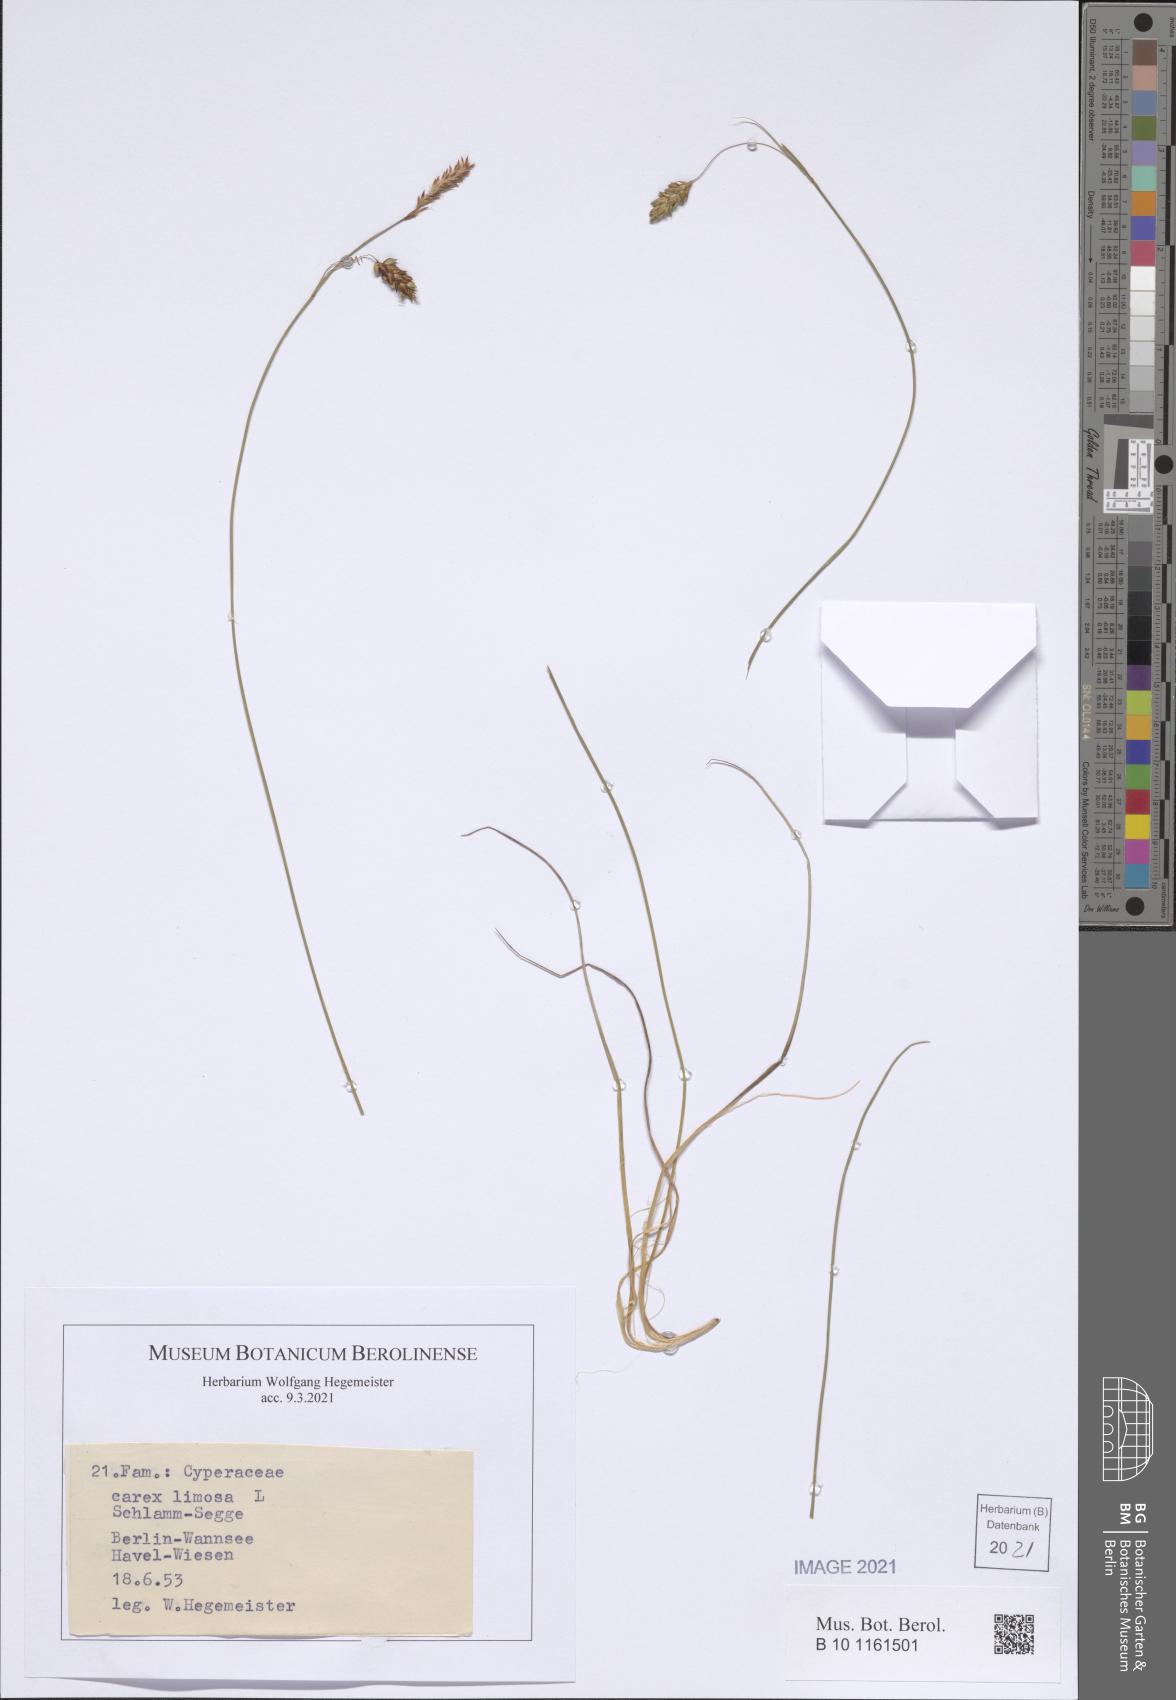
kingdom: Plantae
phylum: Tracheophyta
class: Liliopsida
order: Poales
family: Cyperaceae
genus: Carex
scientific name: Carex limosa
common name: Bog sedge
